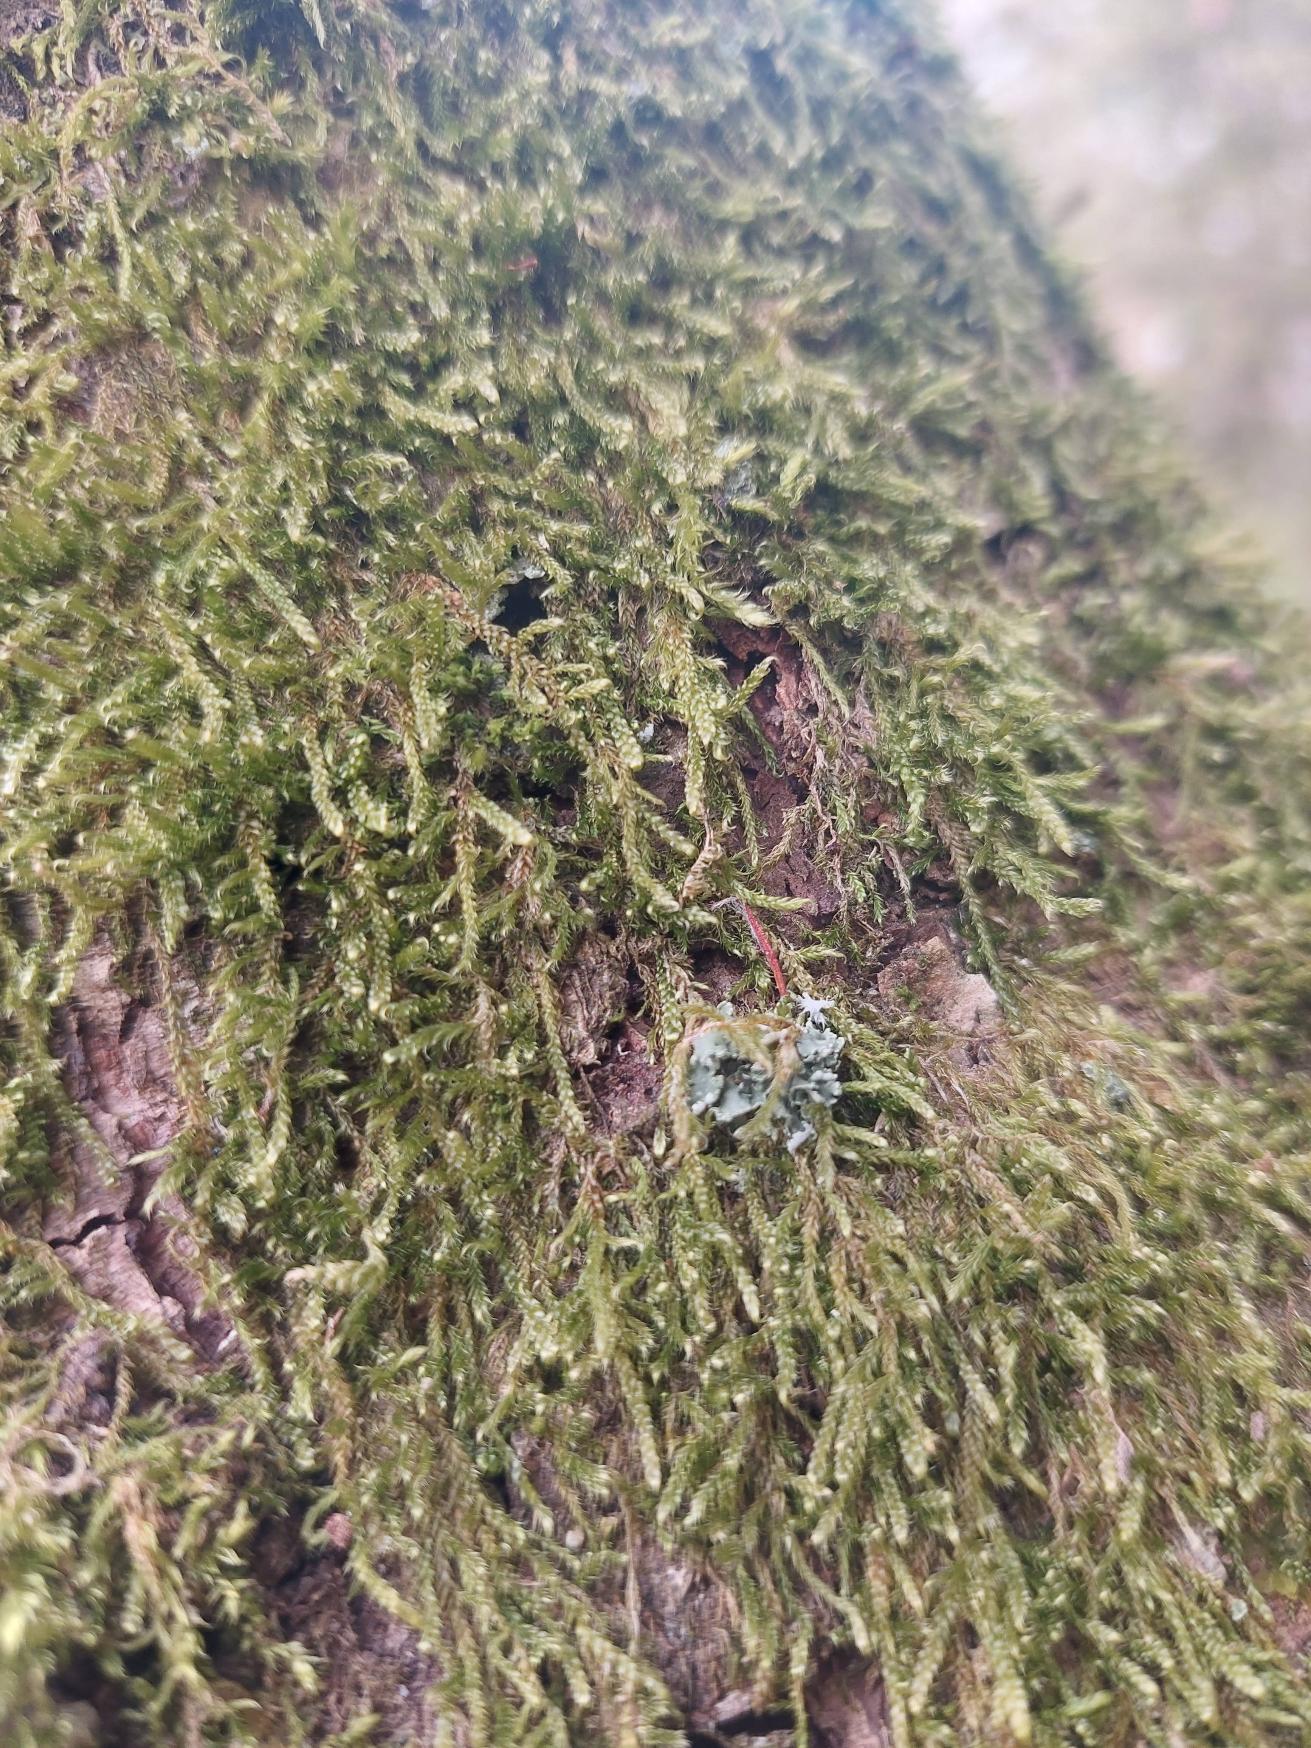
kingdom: Plantae
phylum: Bryophyta
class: Bryopsida
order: Hypnales
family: Hypnaceae
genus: Hypnum
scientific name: Hypnum cupressiforme
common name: Almindelig cypresmos
